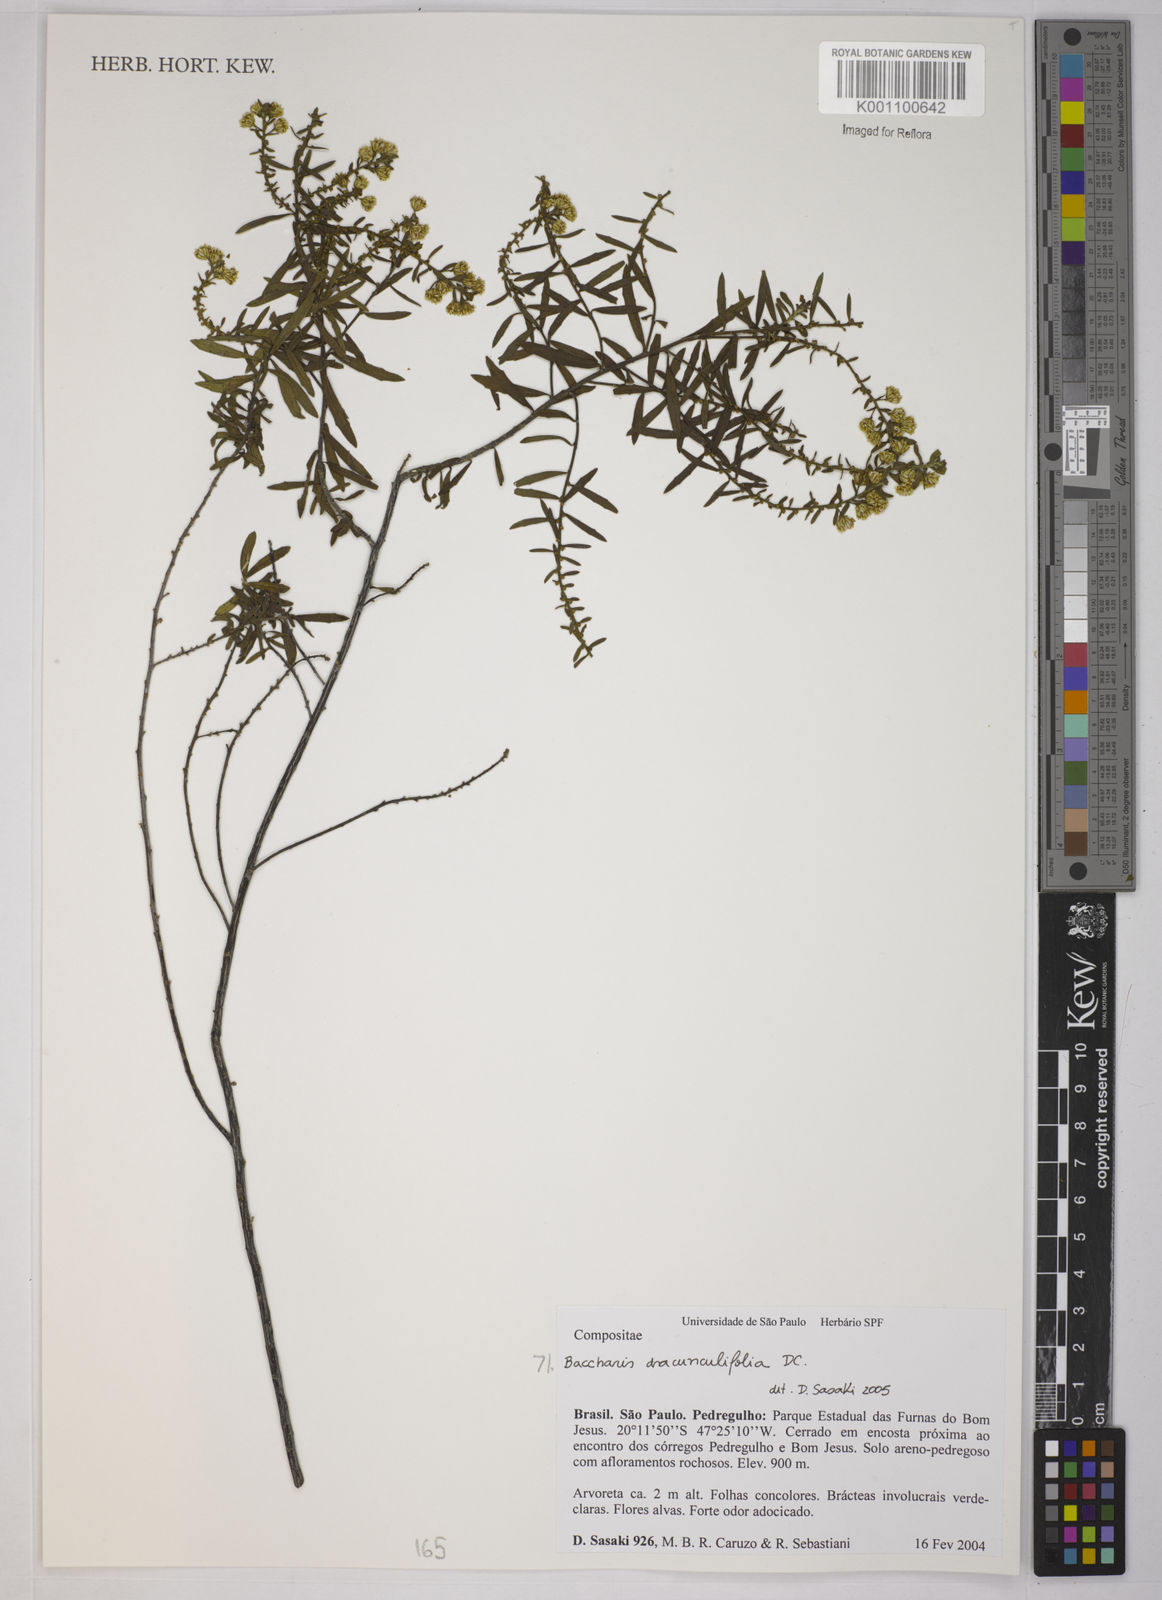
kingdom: Plantae
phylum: Tracheophyta
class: Magnoliopsida
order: Asterales
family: Asteraceae
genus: Baccharis
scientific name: Baccharis dracunculifolia
